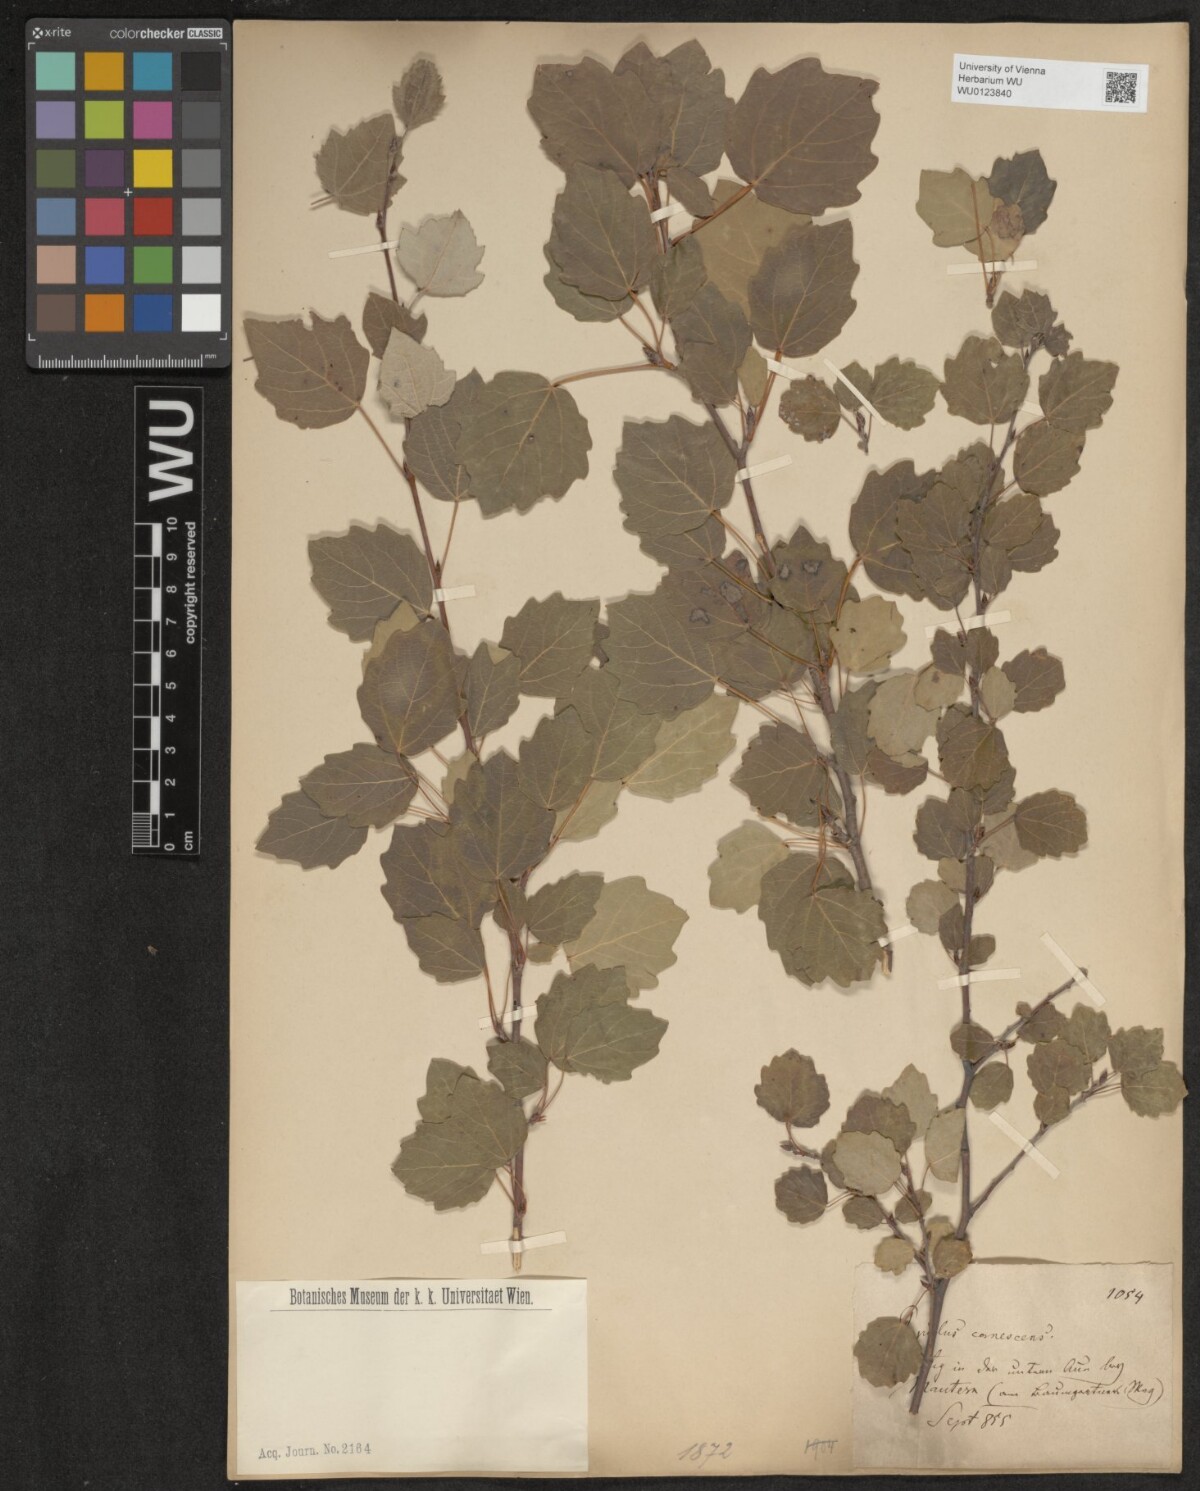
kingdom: Plantae
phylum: Tracheophyta
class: Magnoliopsida
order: Malpighiales
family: Salicaceae
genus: Populus
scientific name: Populus canescens
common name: Gray poplar
